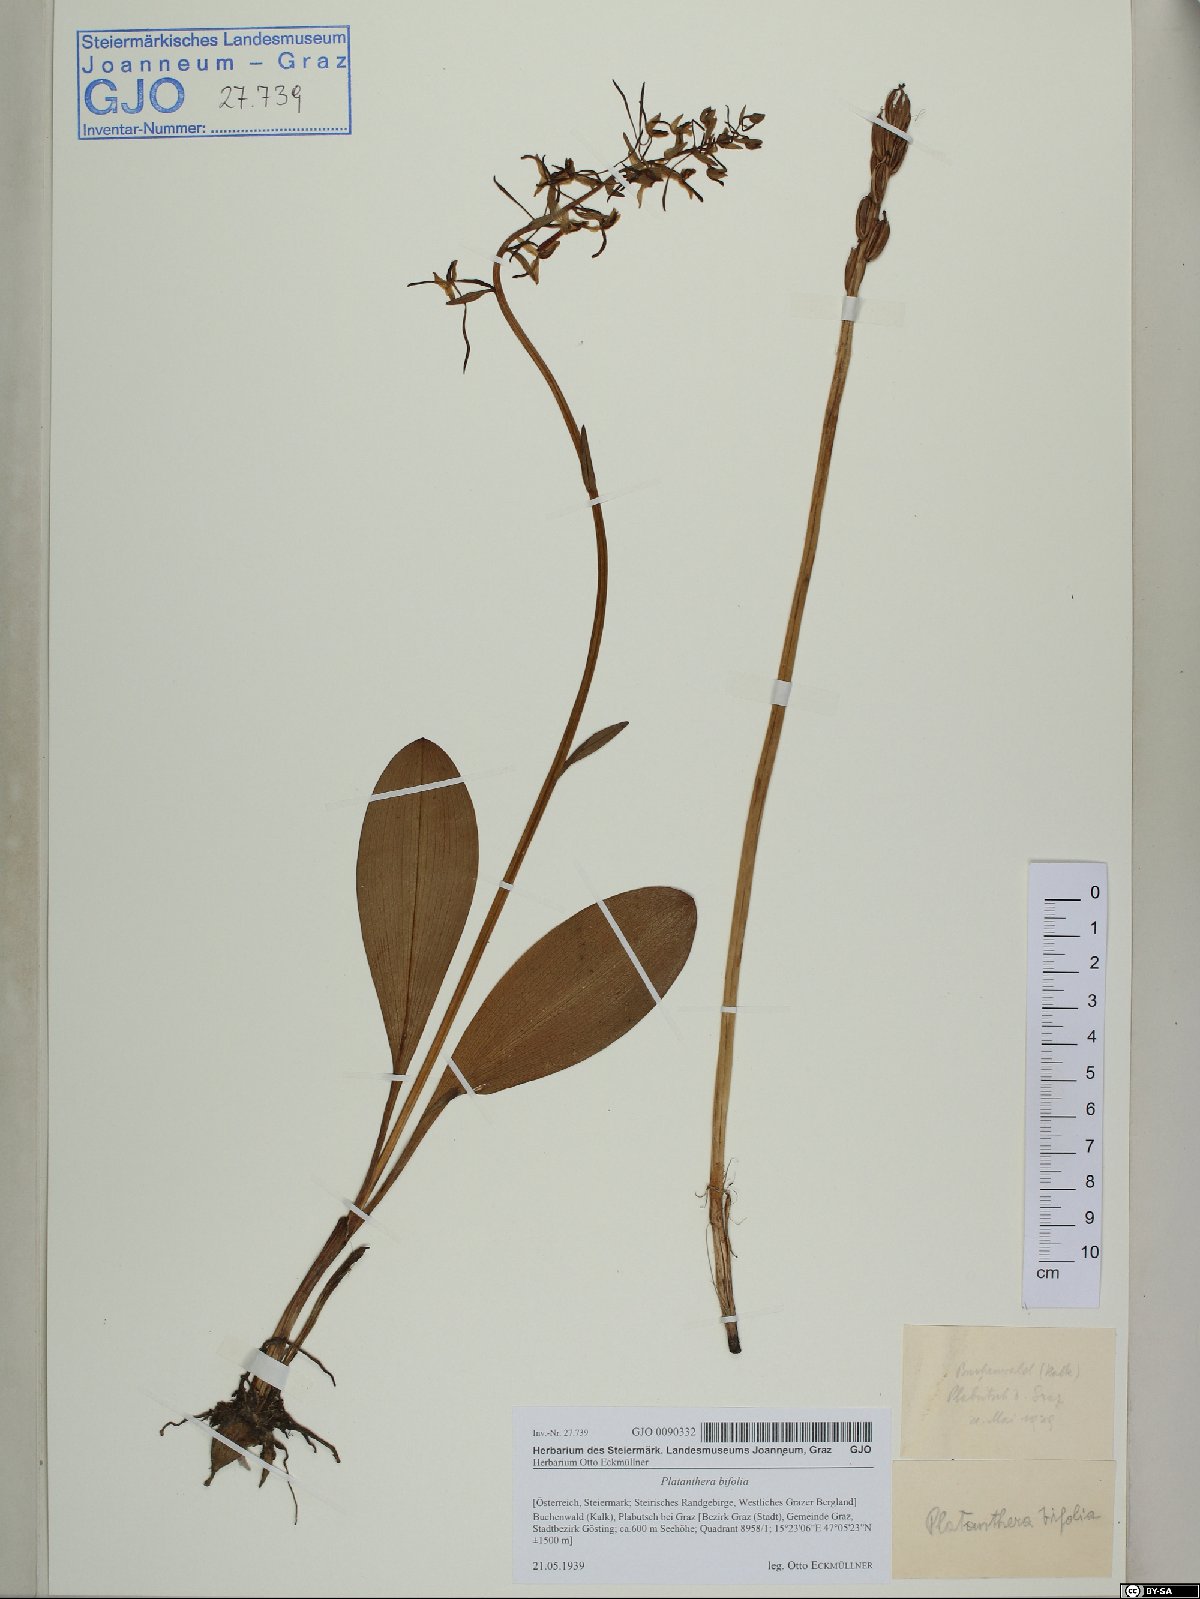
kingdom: Plantae
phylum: Tracheophyta
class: Liliopsida
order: Asparagales
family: Orchidaceae
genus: Platanthera
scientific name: Platanthera bifolia
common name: Lesser butterfly-orchid
